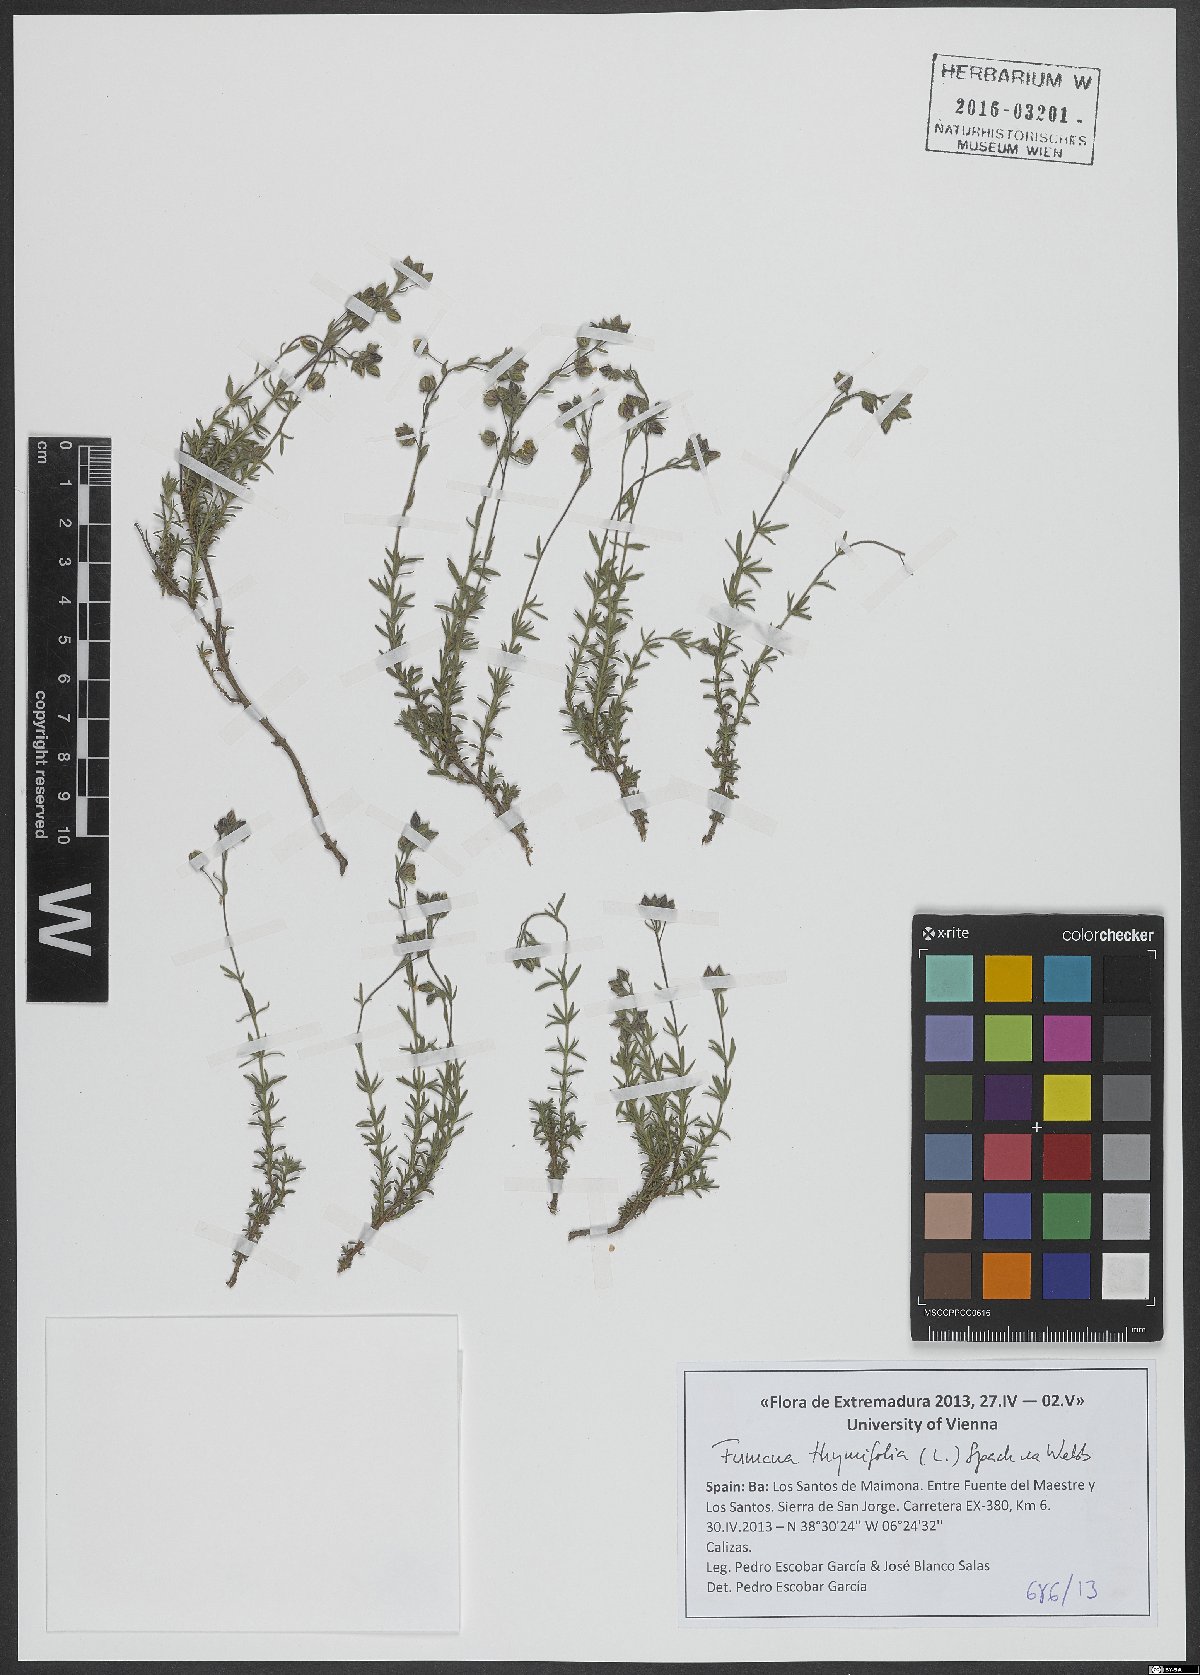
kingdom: Plantae
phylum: Tracheophyta
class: Magnoliopsida
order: Malvales
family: Cistaceae
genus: Fumana
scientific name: Fumana thymifolia
